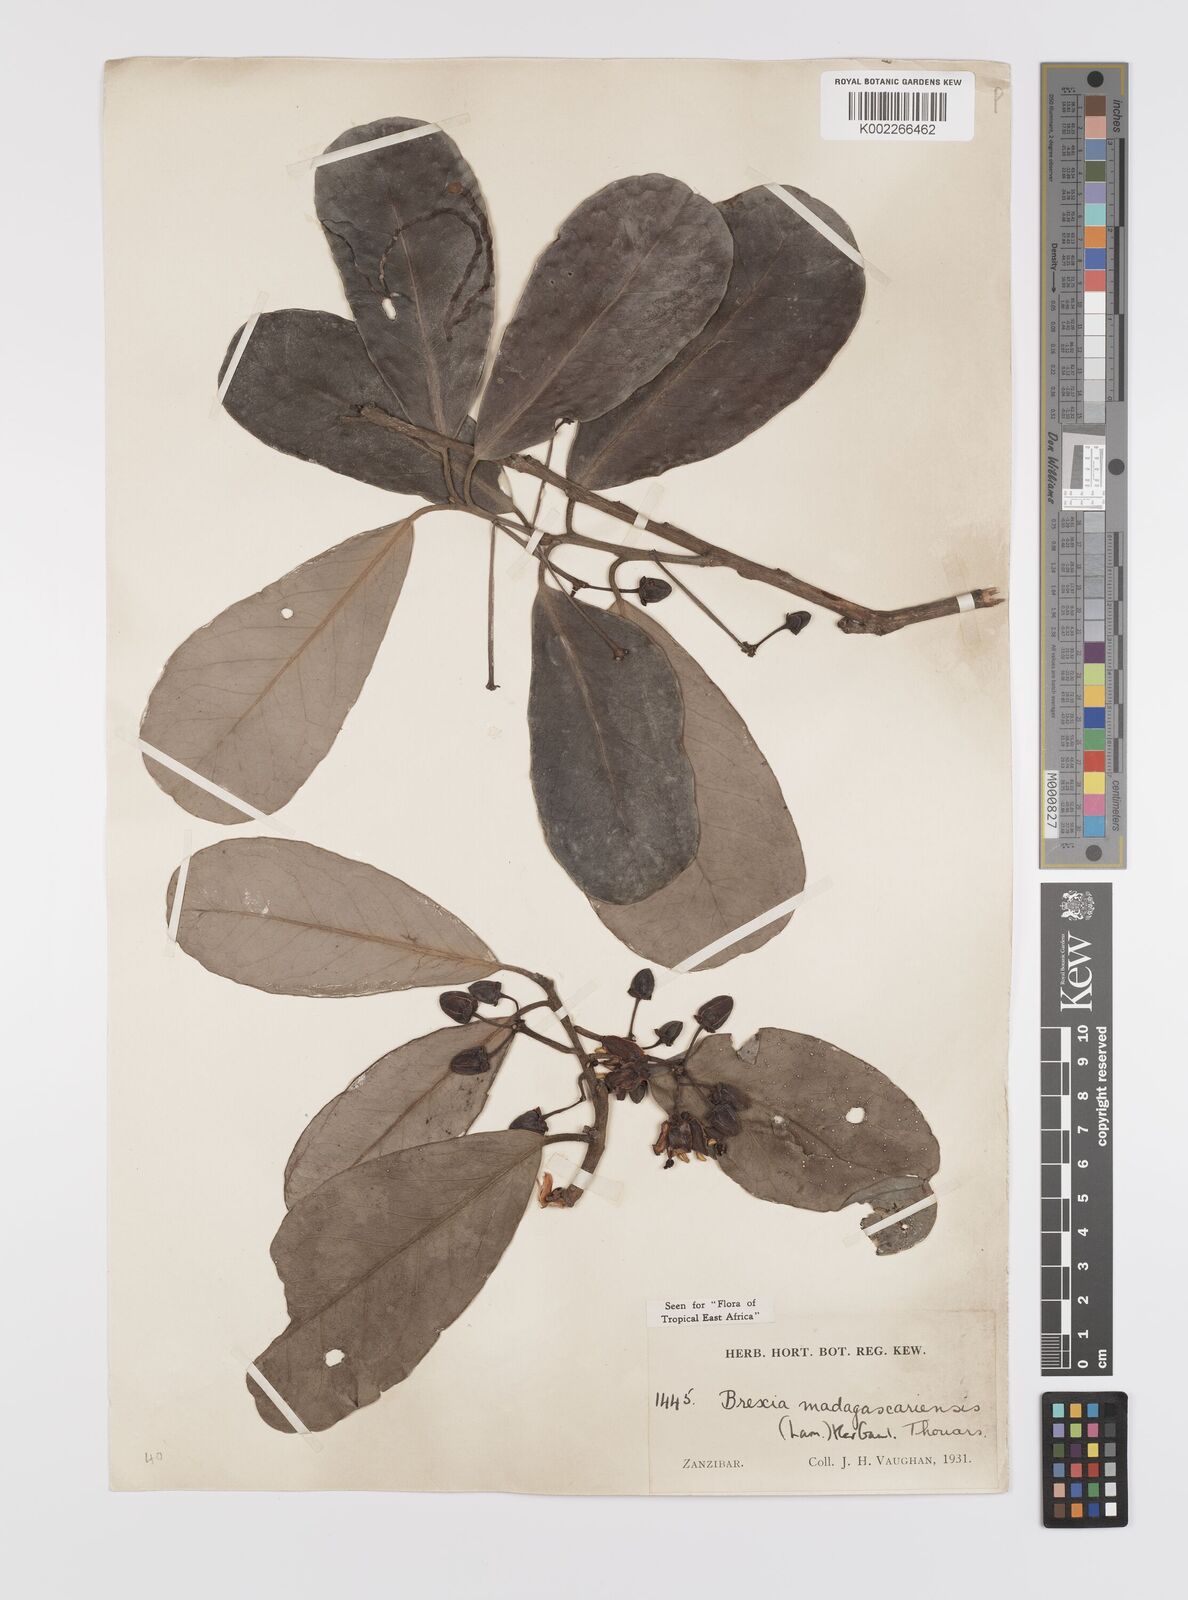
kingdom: Plantae
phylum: Tracheophyta
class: Magnoliopsida
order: Celastrales
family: Celastraceae
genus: Brexia
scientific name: Brexia madagascariensis
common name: Brexia
